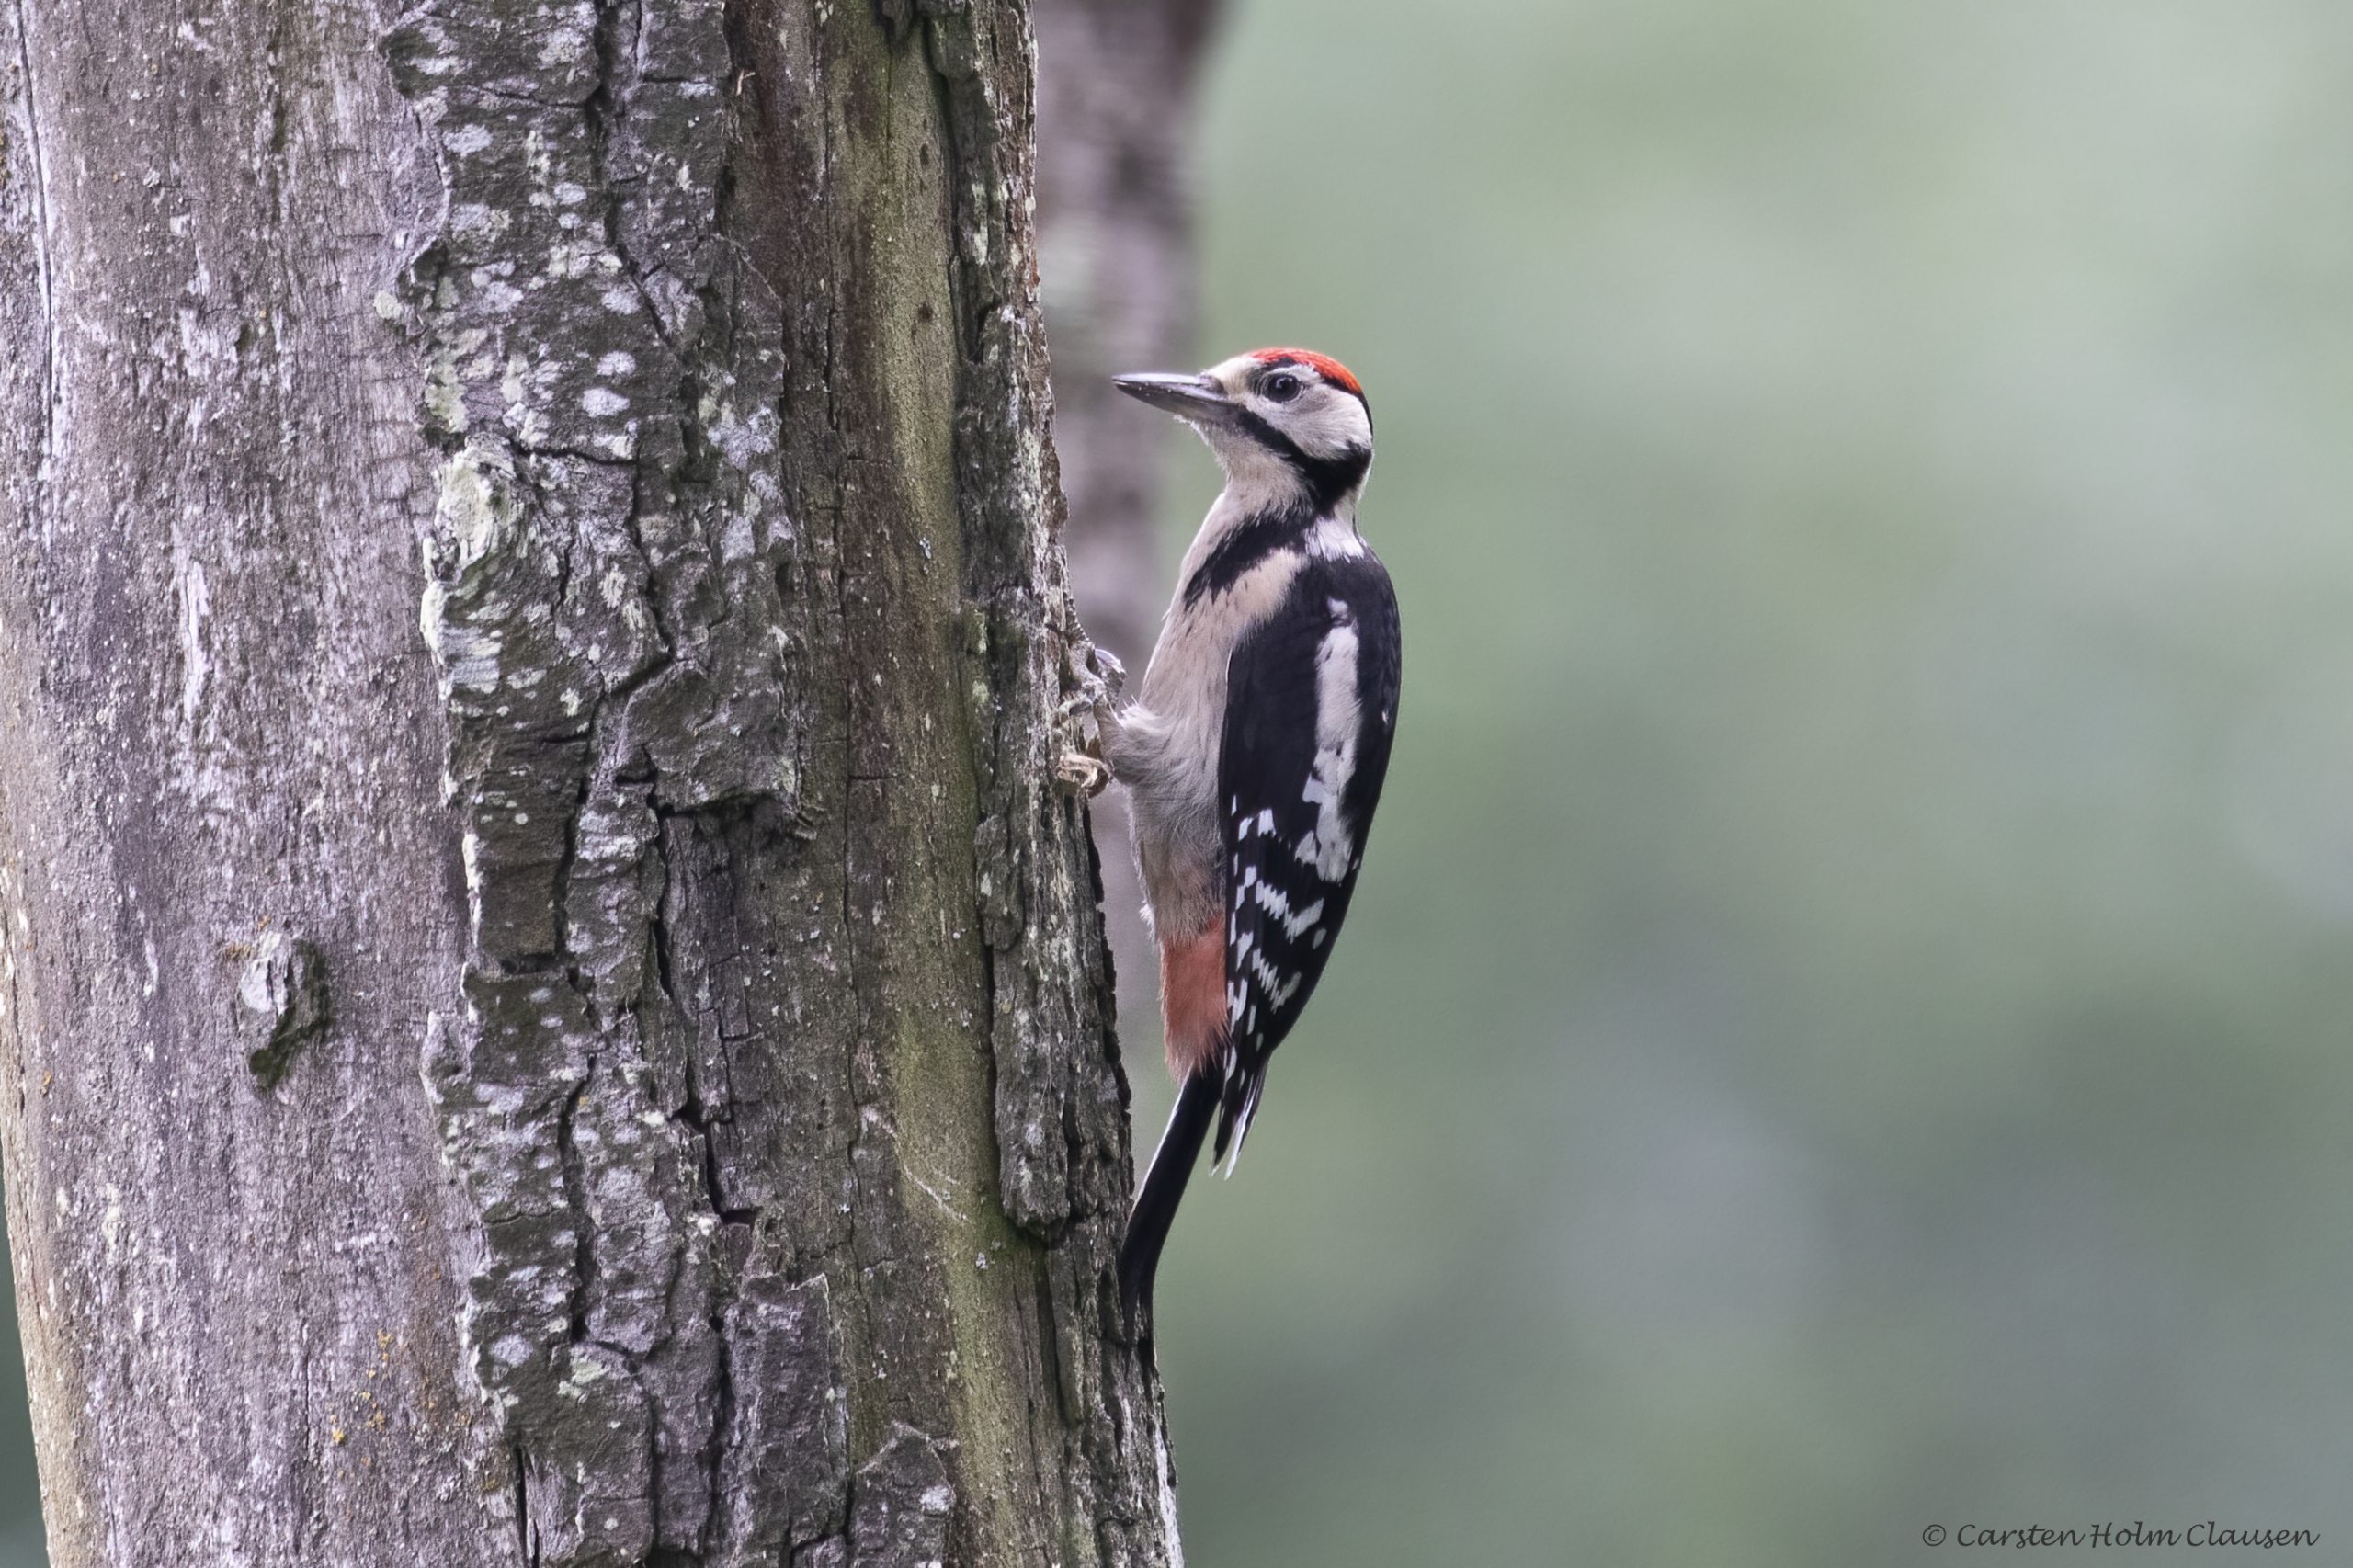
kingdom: Animalia
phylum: Chordata
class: Aves
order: Piciformes
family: Picidae
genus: Dendrocopos
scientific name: Dendrocopos major
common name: Stor flagspætte
